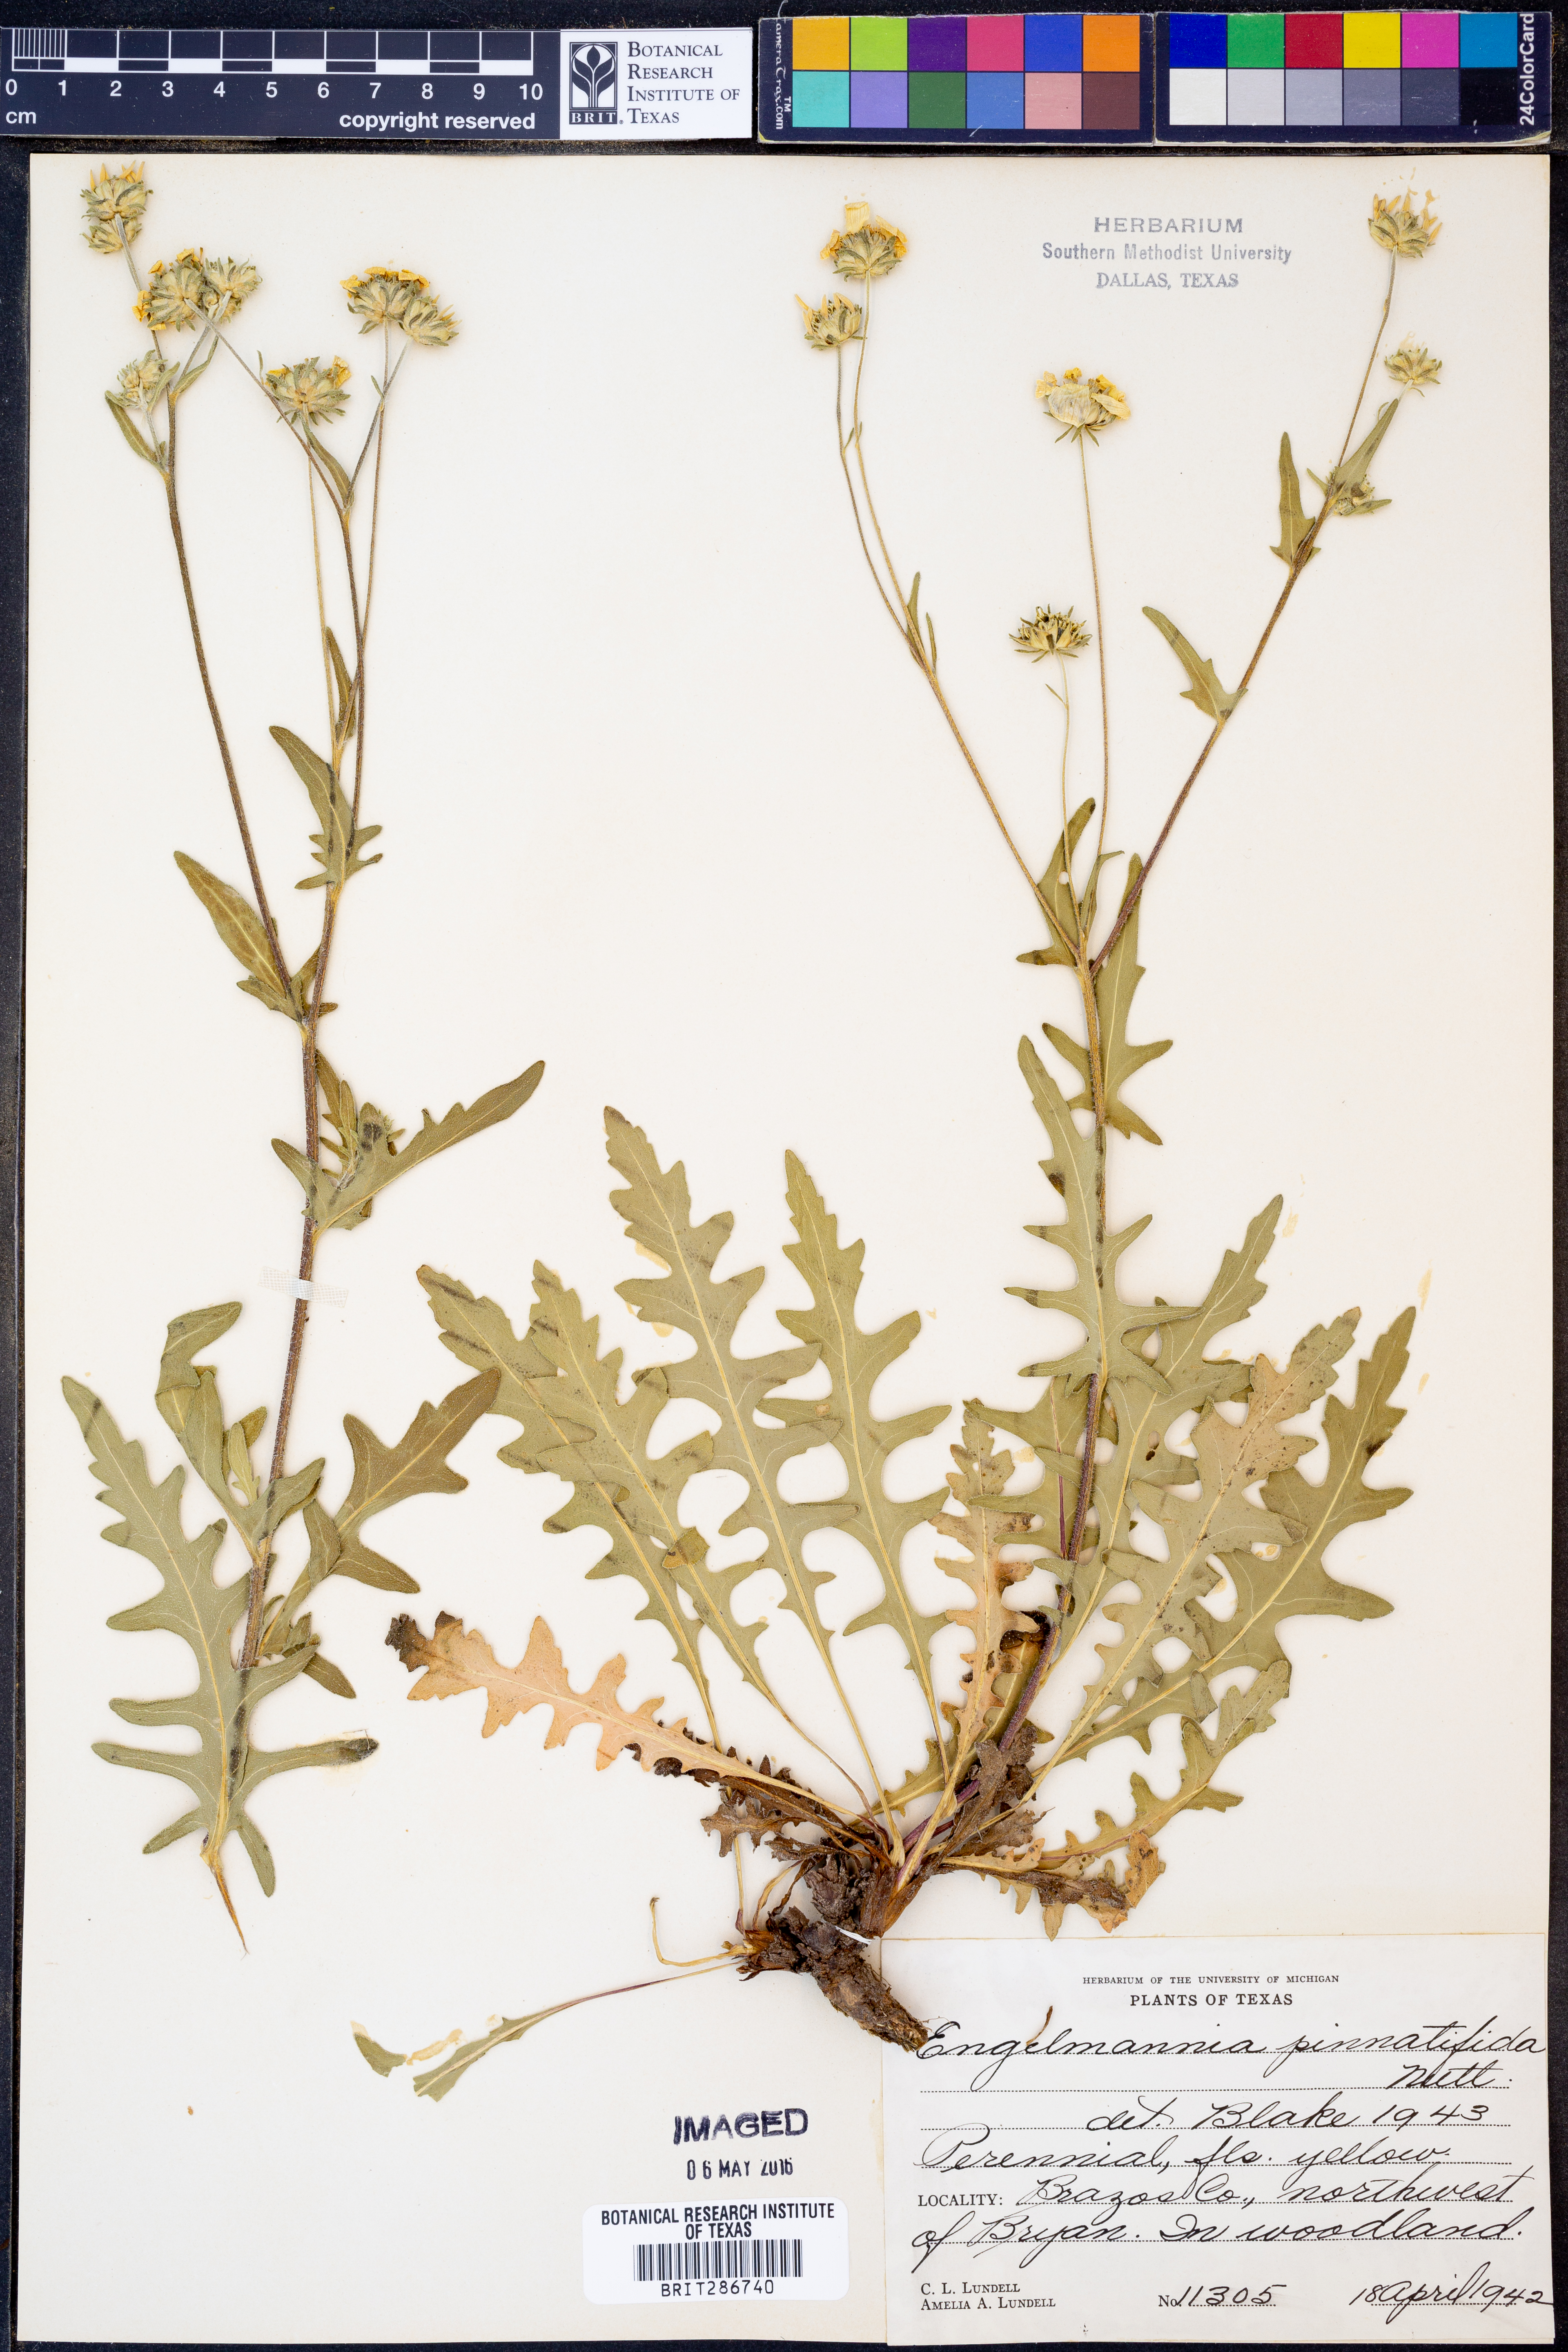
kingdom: Plantae
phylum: Tracheophyta
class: Magnoliopsida
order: Asterales
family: Asteraceae
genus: Engelmannia
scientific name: Engelmannia peristenia
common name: Engelmann's daisy
